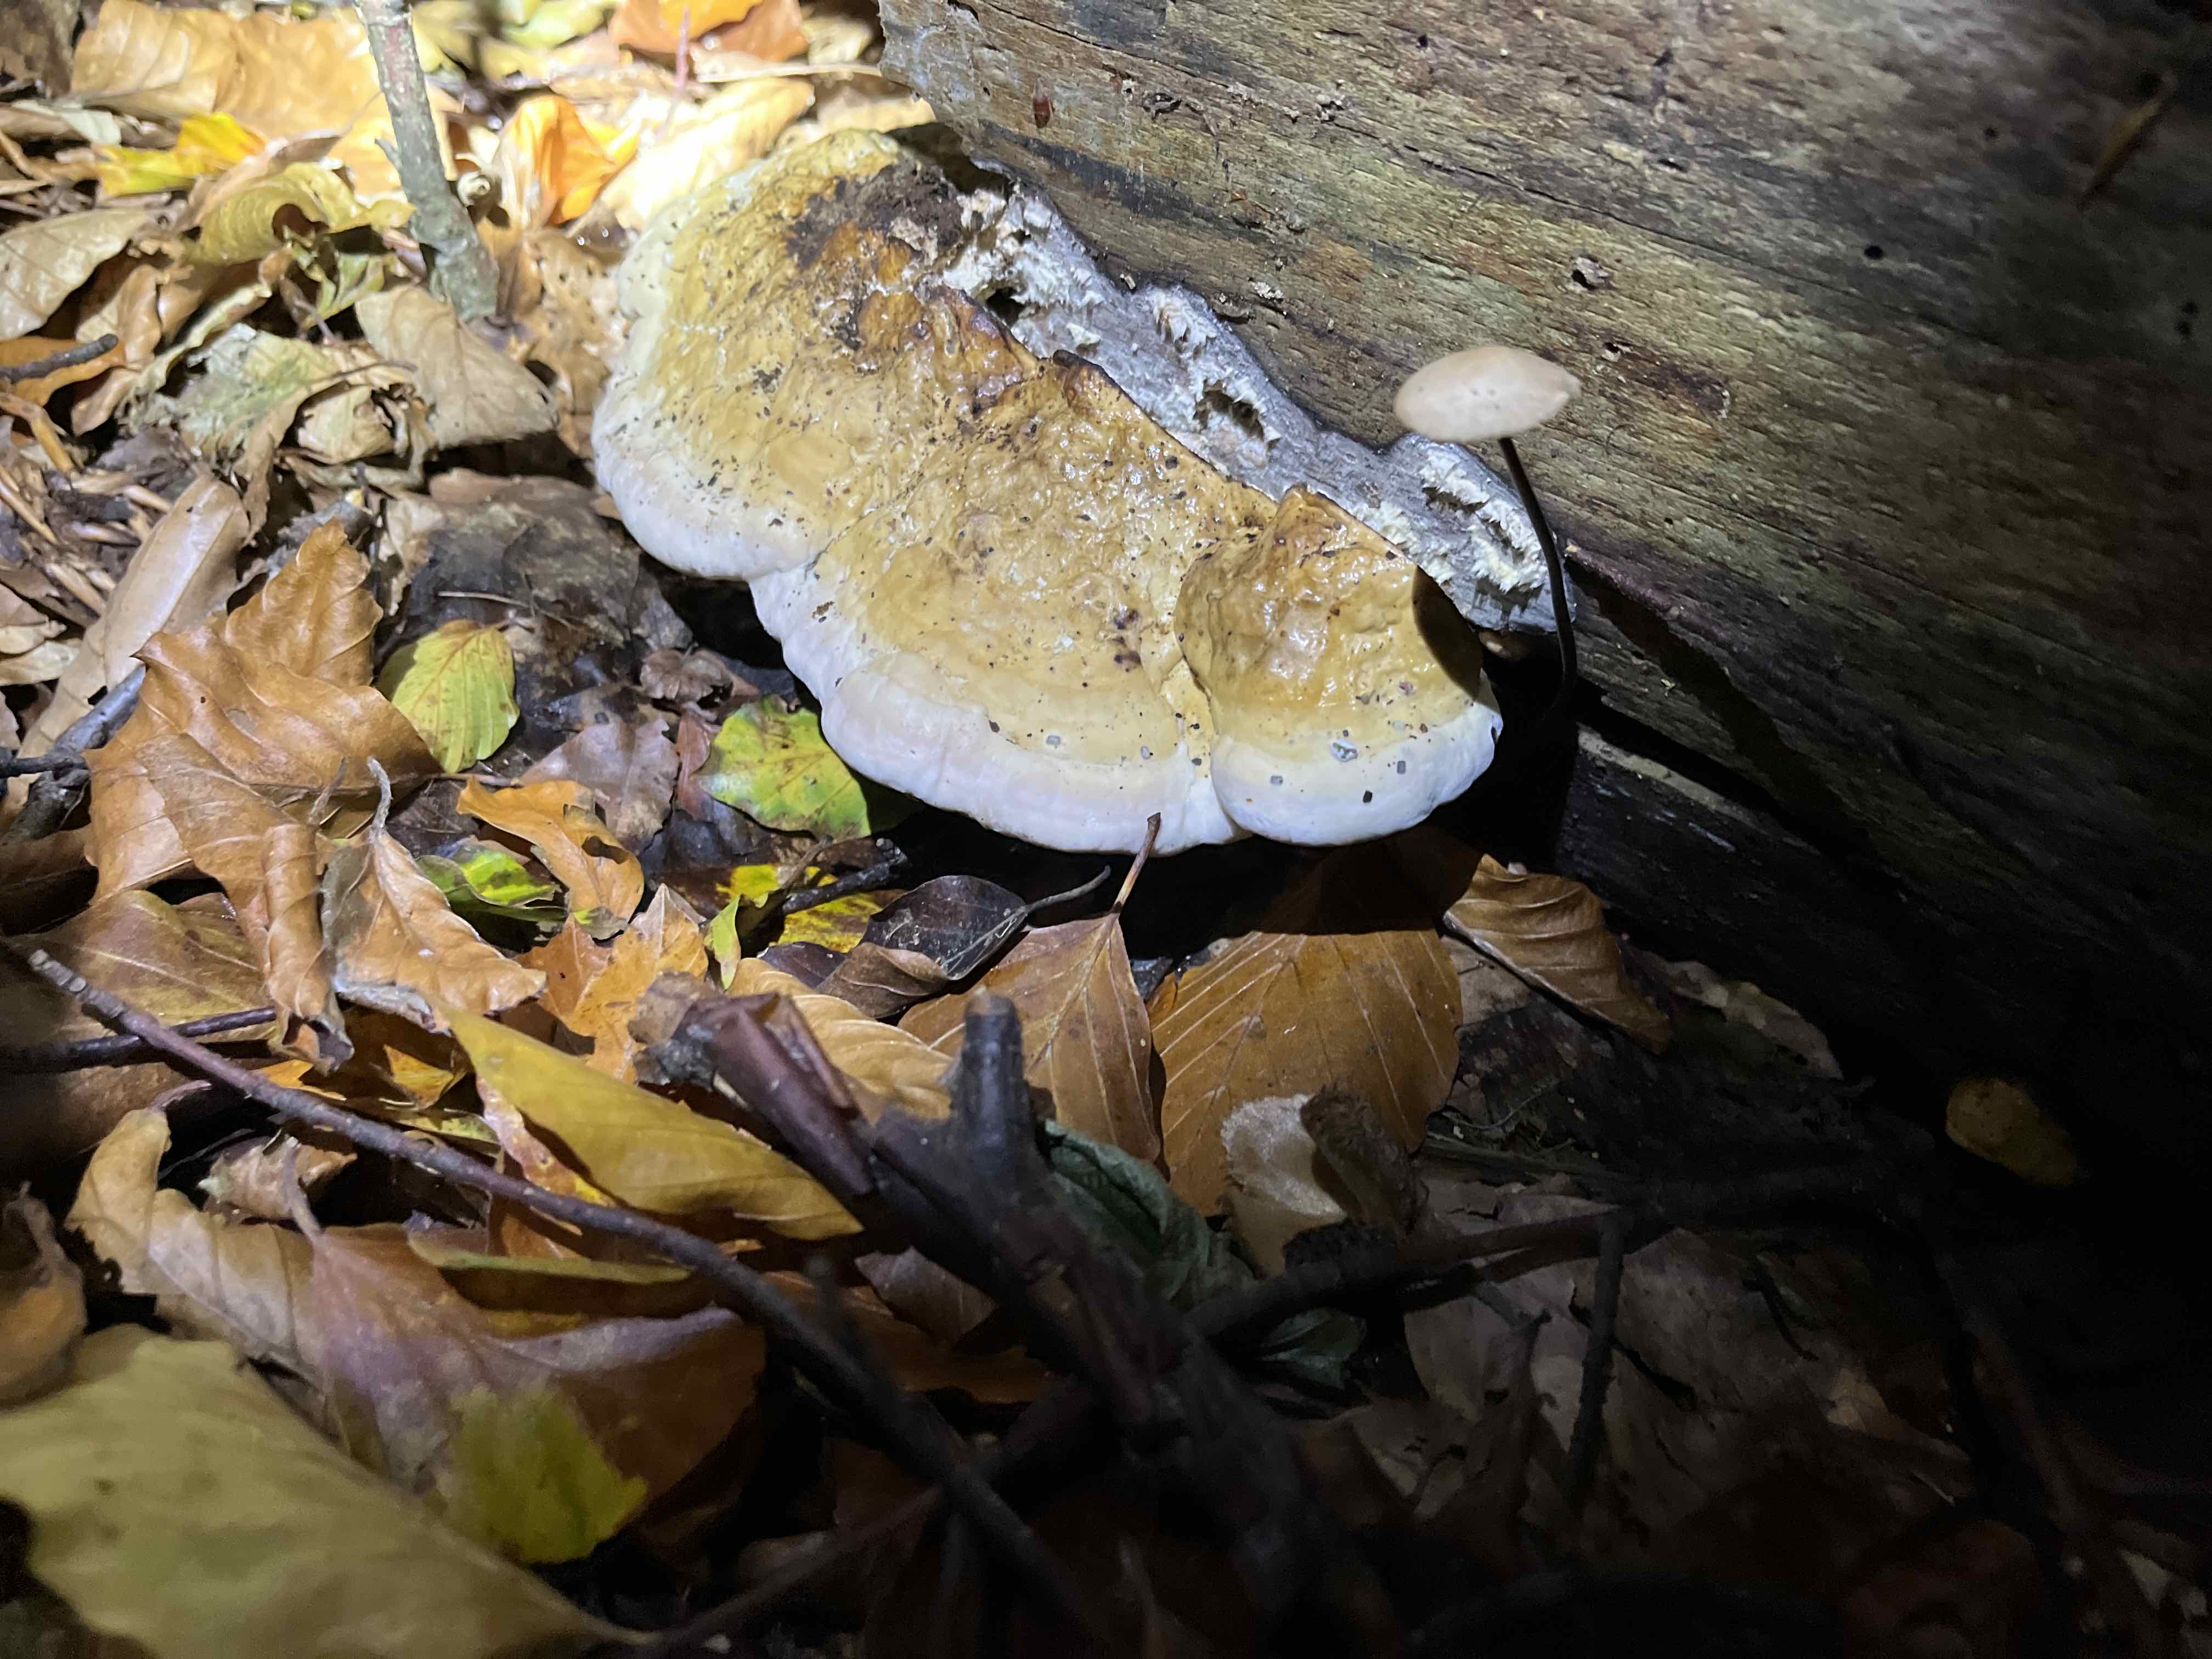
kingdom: Fungi
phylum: Basidiomycota
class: Agaricomycetes
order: Polyporales
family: Fomitopsidaceae
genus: Fomitopsis
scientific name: Fomitopsis pinicola
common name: randbæltet hovporesvamp
